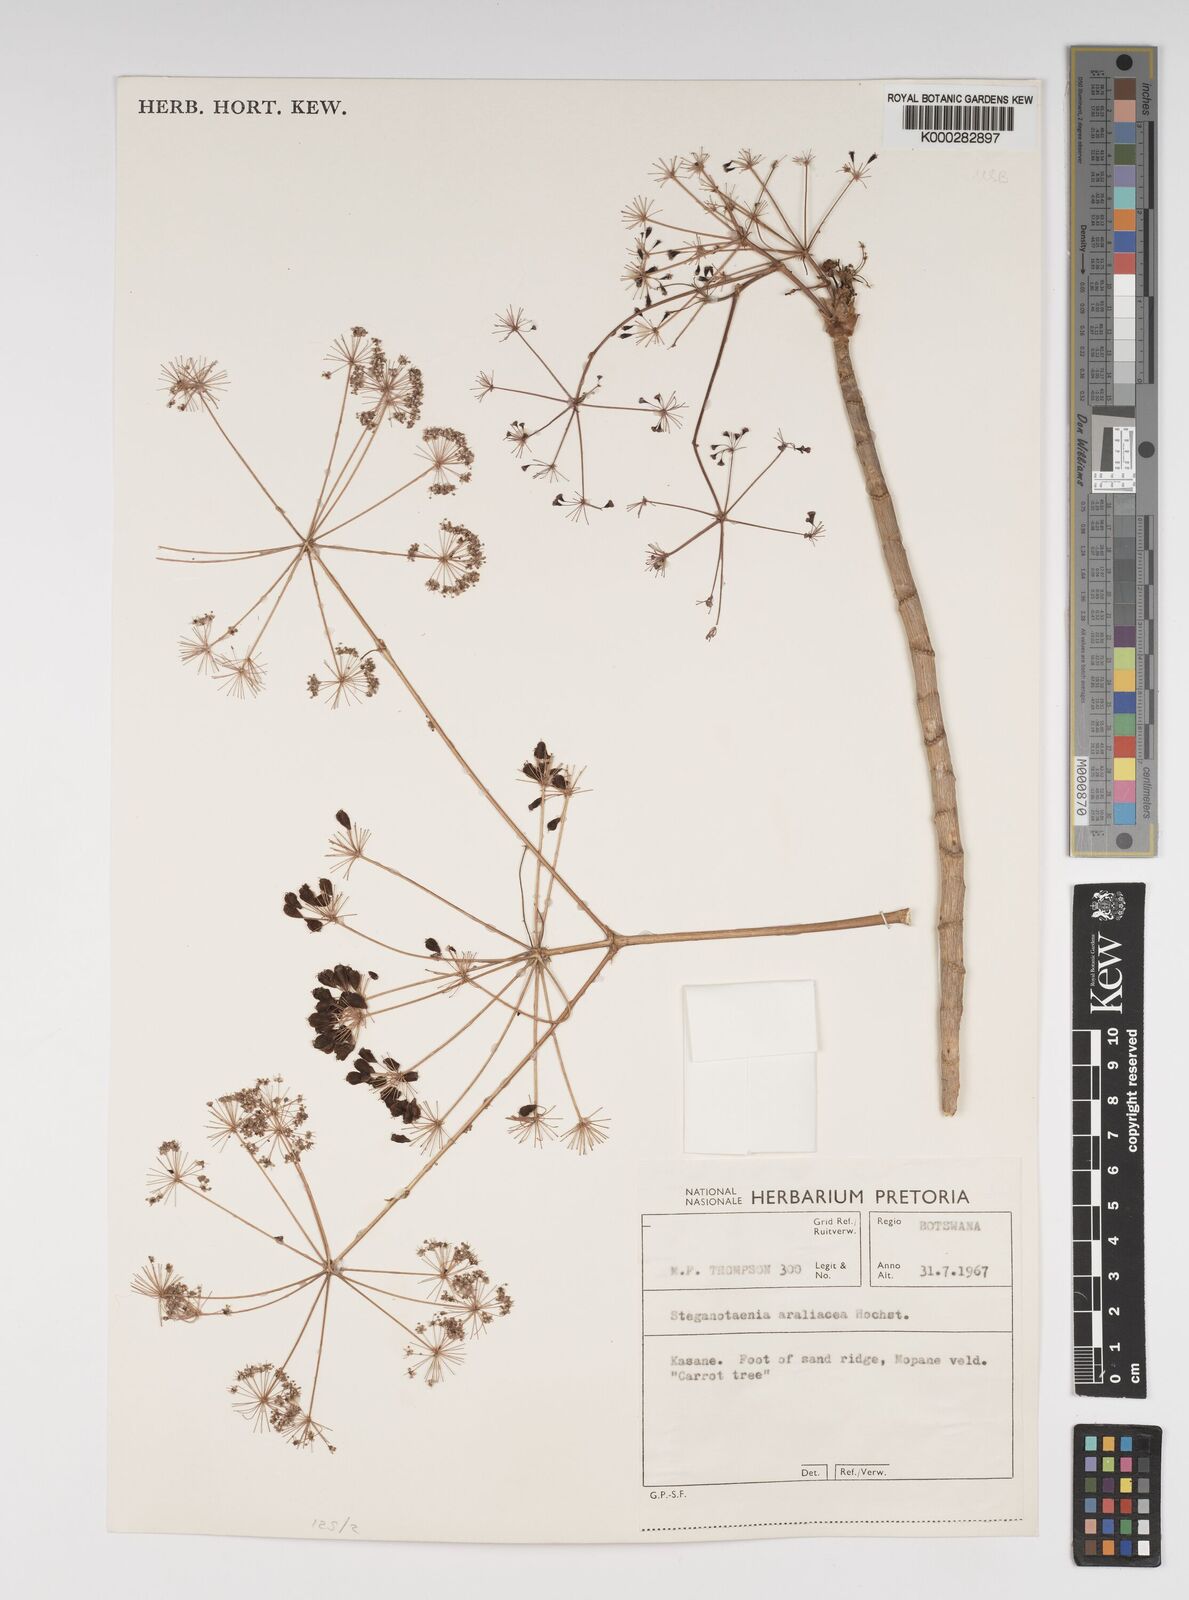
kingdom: Plantae
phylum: Tracheophyta
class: Magnoliopsida
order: Apiales
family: Apiaceae
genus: Steganotaenia
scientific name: Steganotaenia araliacea
